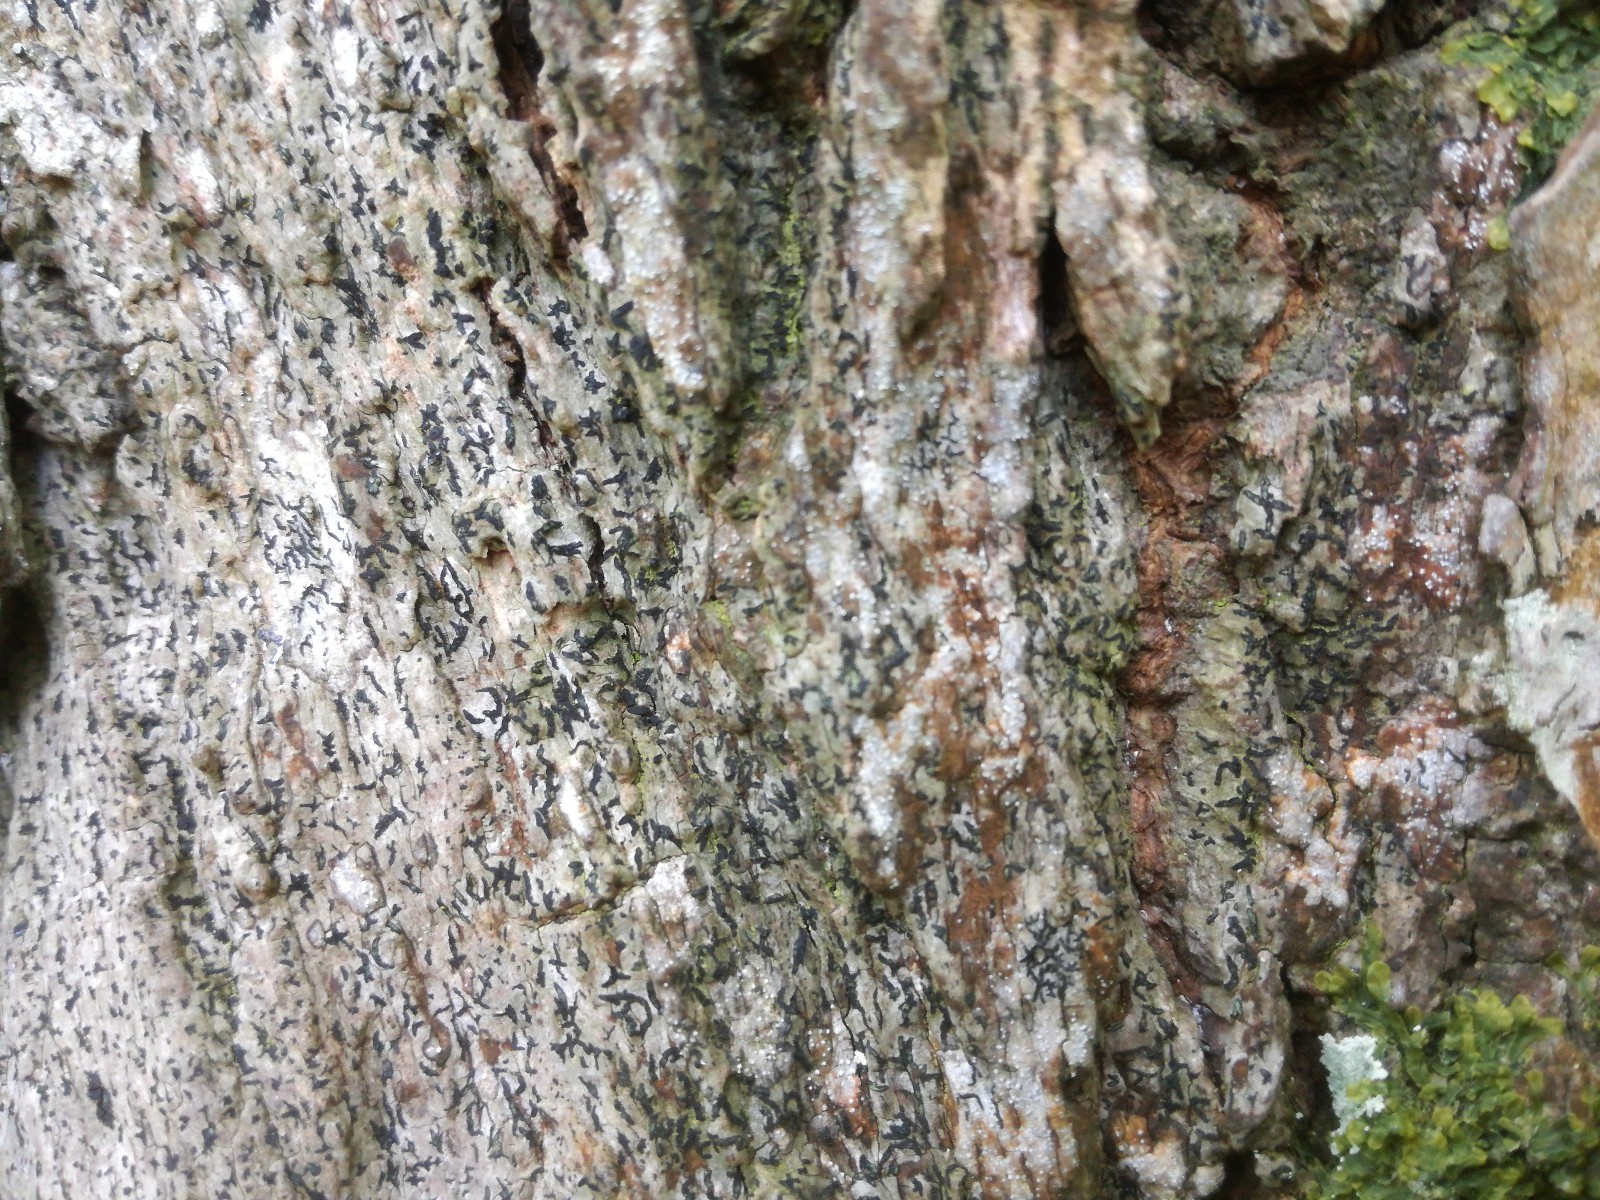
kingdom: Fungi
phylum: Ascomycota
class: Arthoniomycetes
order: Arthoniales
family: Opegraphaceae
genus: Opegrapha
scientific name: Opegrapha vermicellifera
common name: nåleprikket bogstavlav
